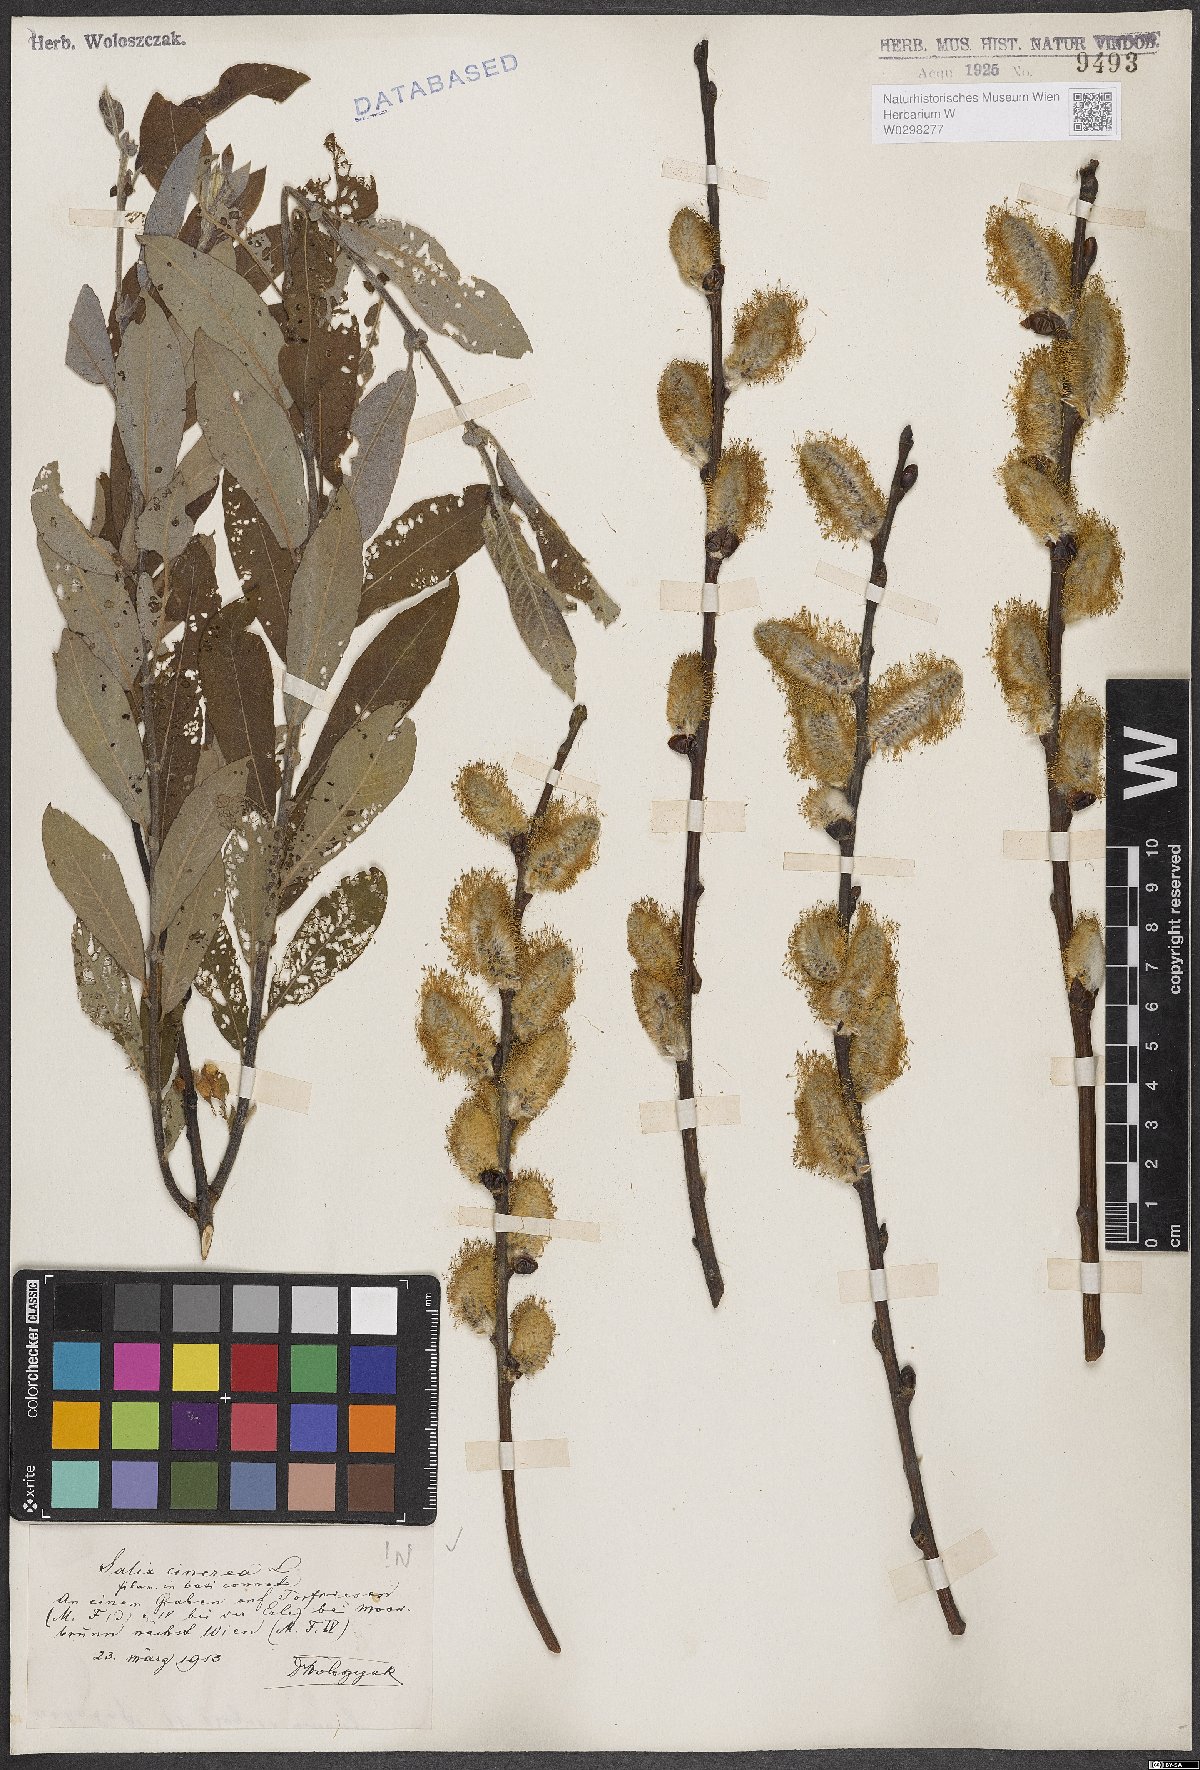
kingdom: Plantae
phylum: Tracheophyta
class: Magnoliopsida
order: Malpighiales
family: Salicaceae
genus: Salix
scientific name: Salix cinerea
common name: Common sallow
